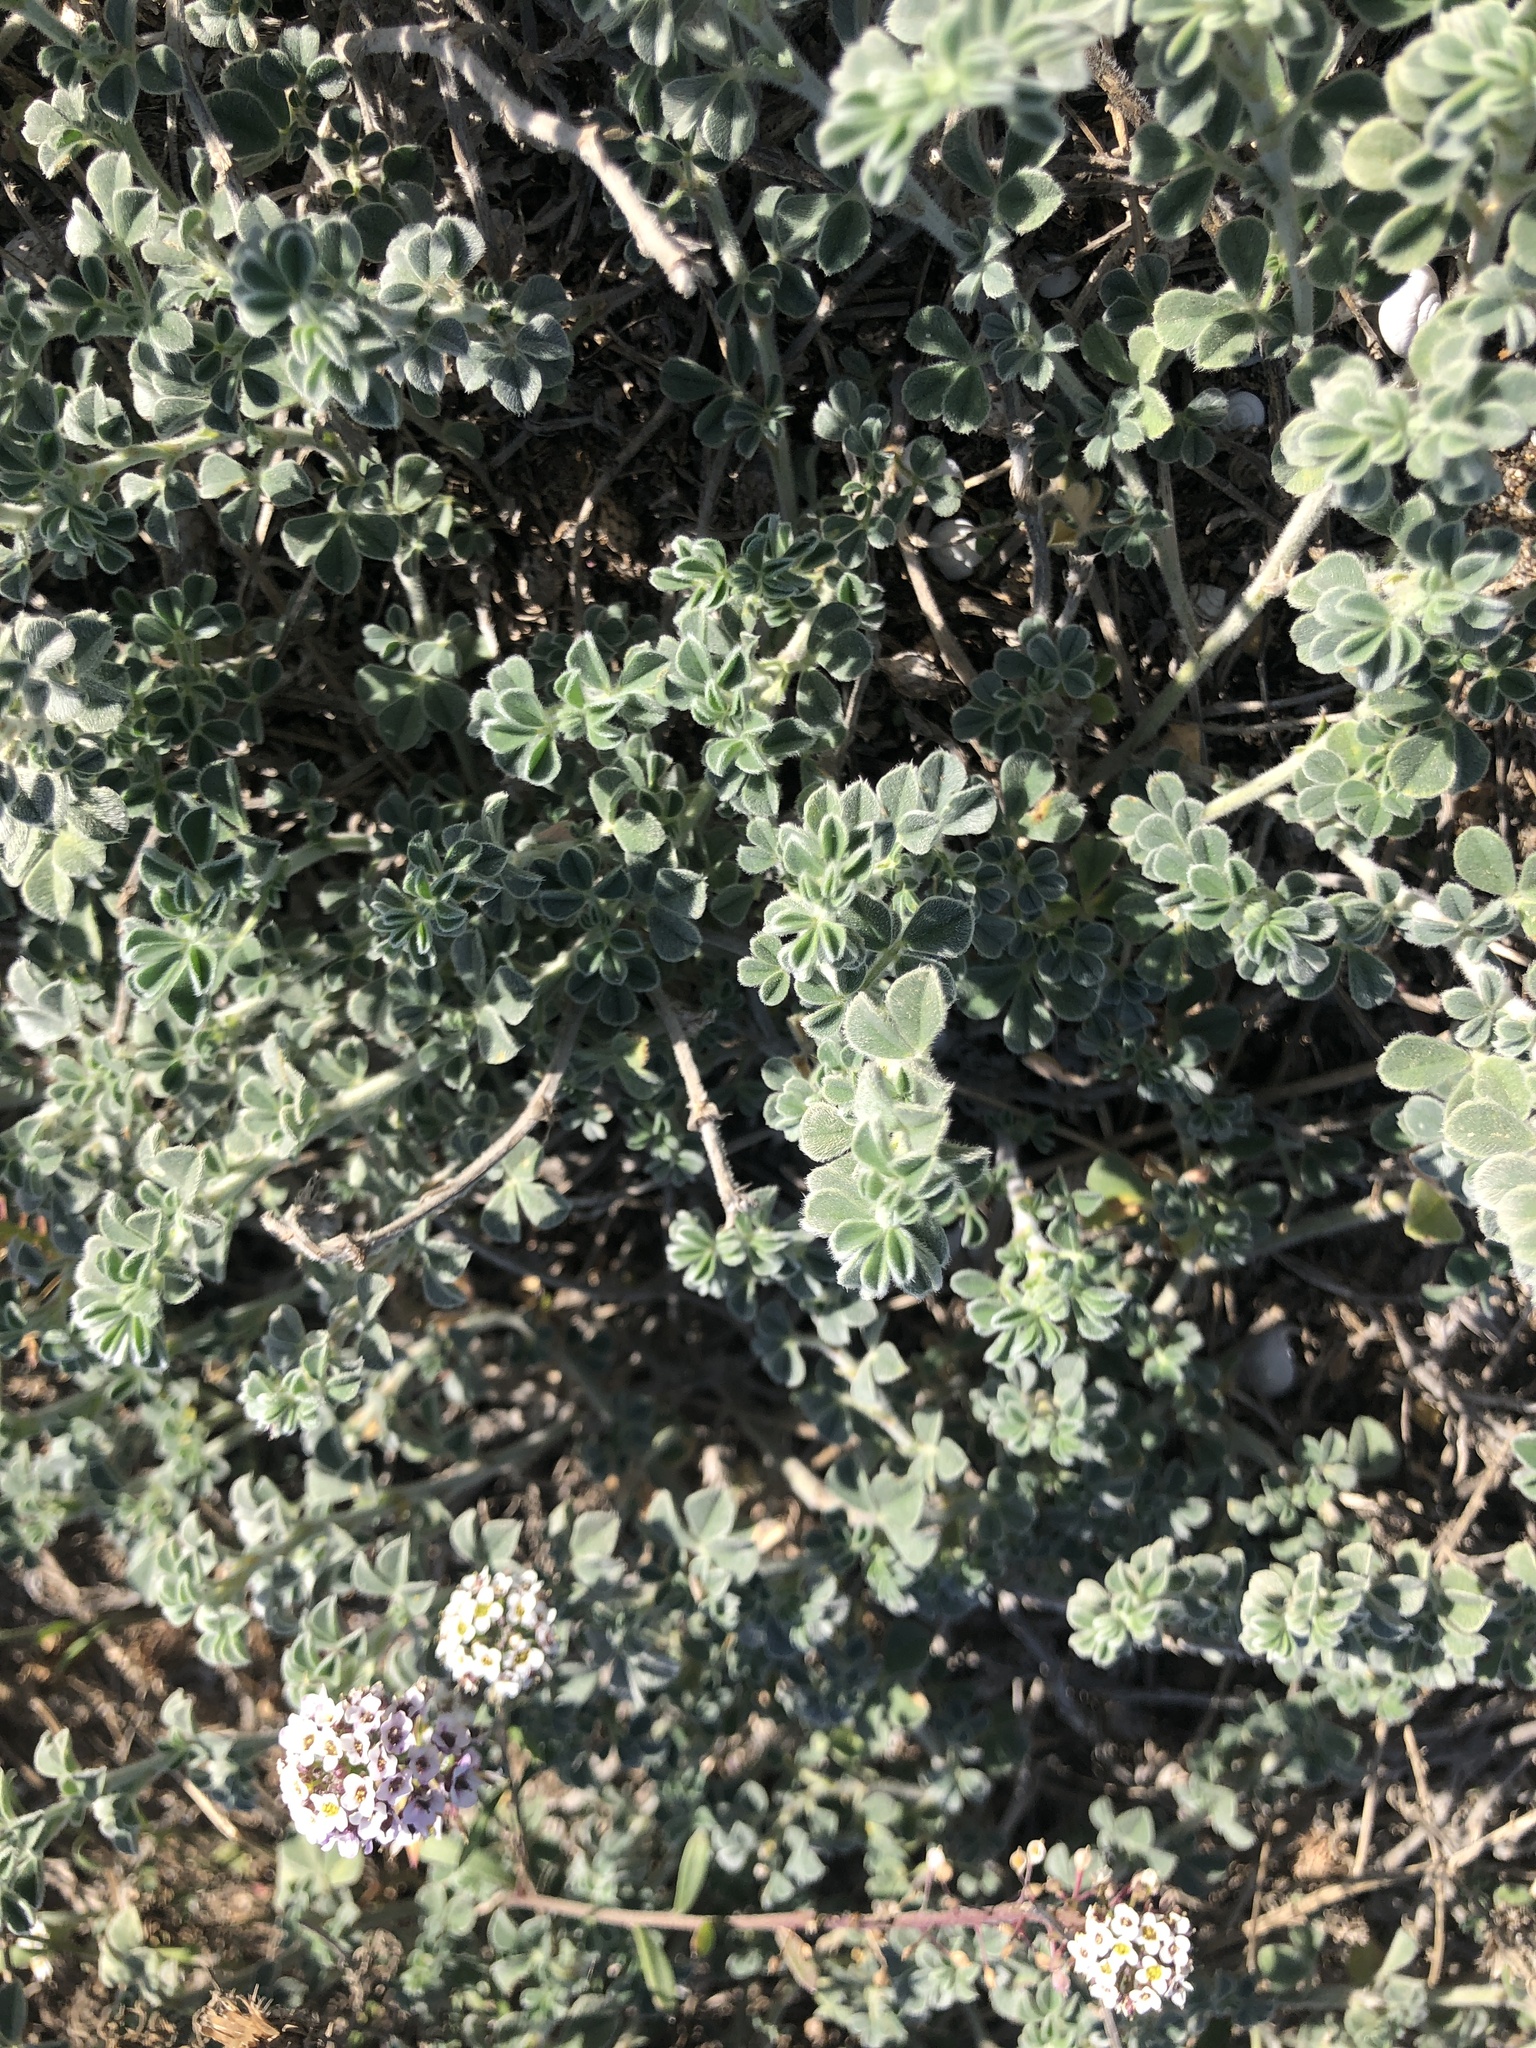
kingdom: Plantae
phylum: Tracheophyta
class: Magnoliopsida
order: Fabales
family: Fabaceae
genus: Medicago
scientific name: Medicago marina
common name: Sea medick
